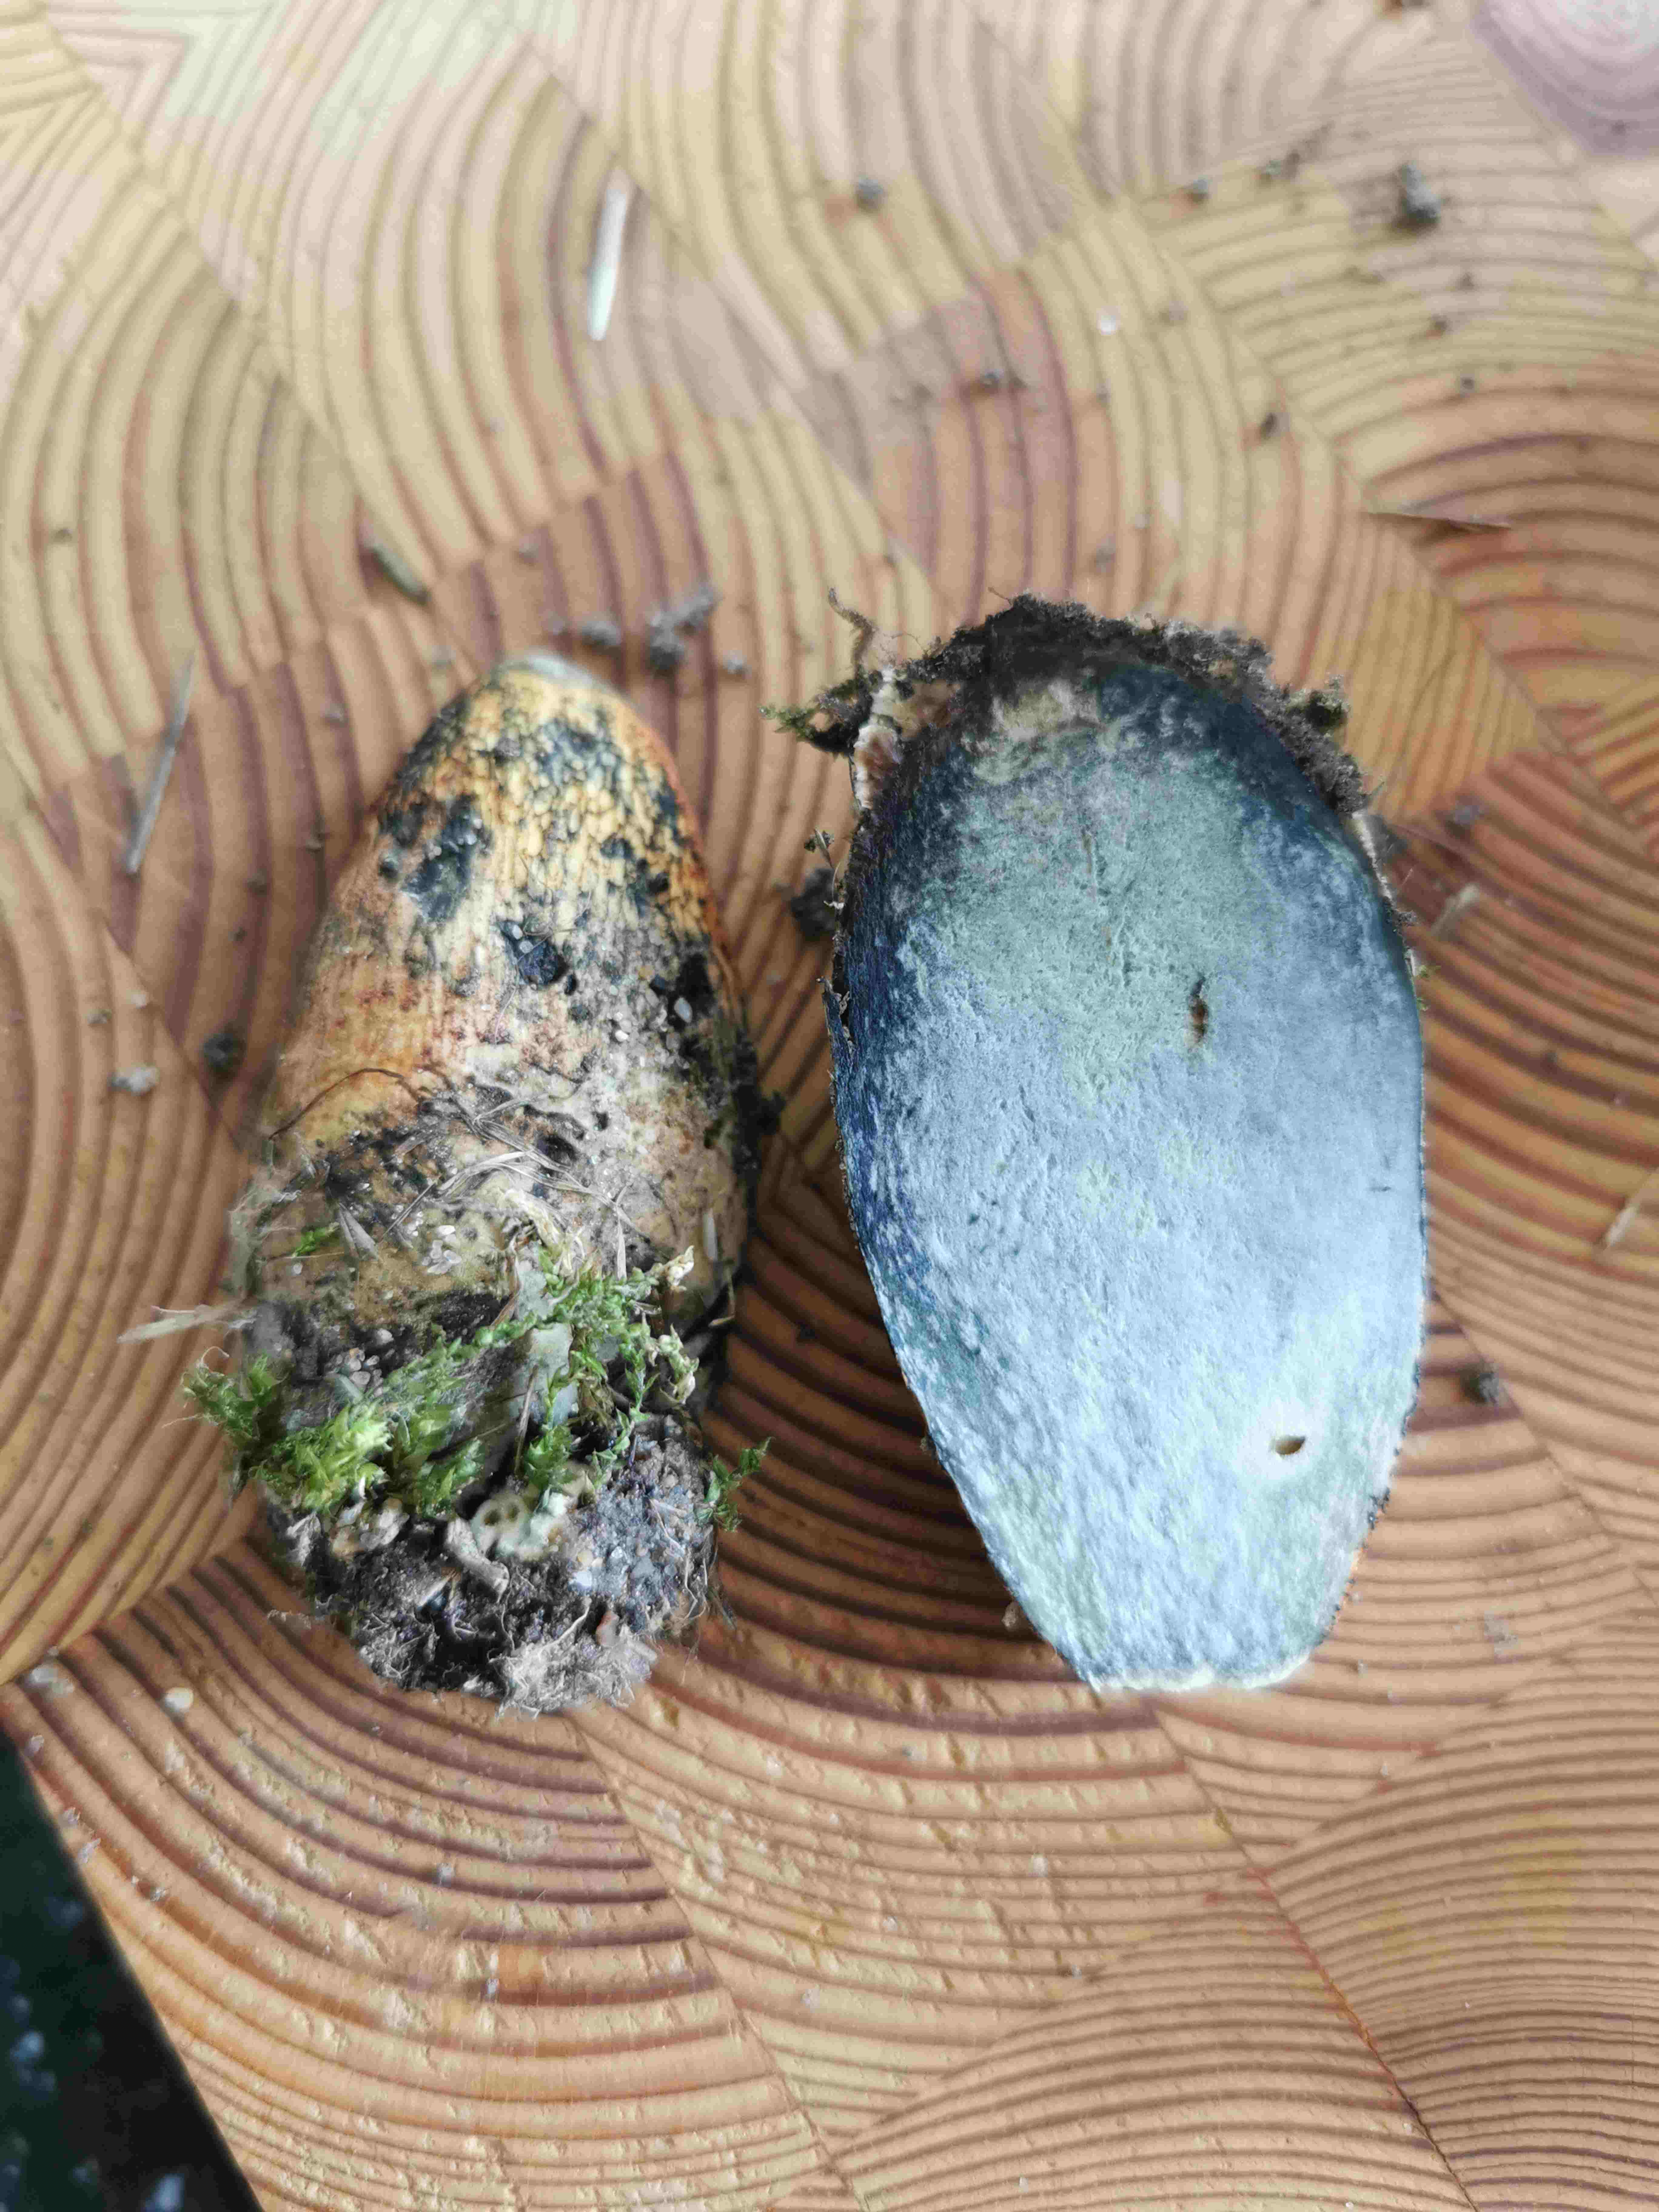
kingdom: Fungi
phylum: Basidiomycota
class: Agaricomycetes
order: Boletales
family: Boletaceae
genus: Suillellus
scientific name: Suillellus luridus
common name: netstokket indigorørhat
